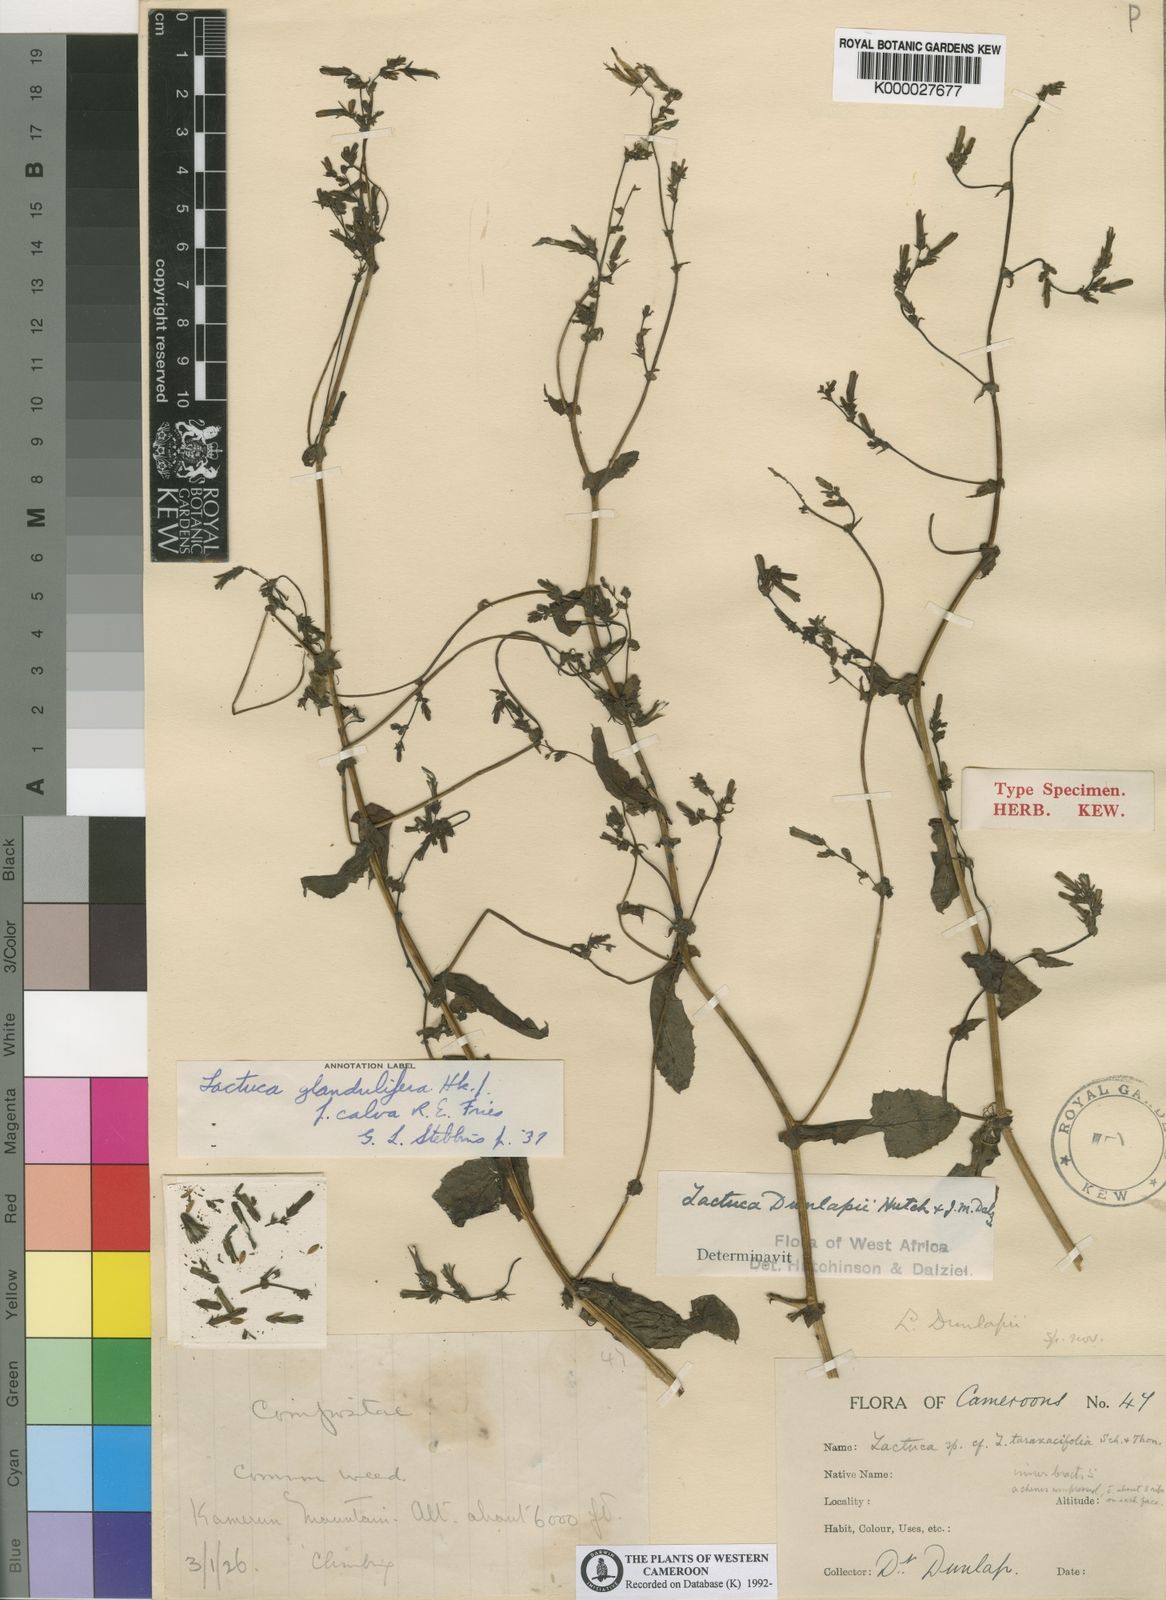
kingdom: Plantae
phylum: Tracheophyta
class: Magnoliopsida
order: Asterales
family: Asteraceae
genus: Lactuca
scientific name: Lactuca glandulifera
